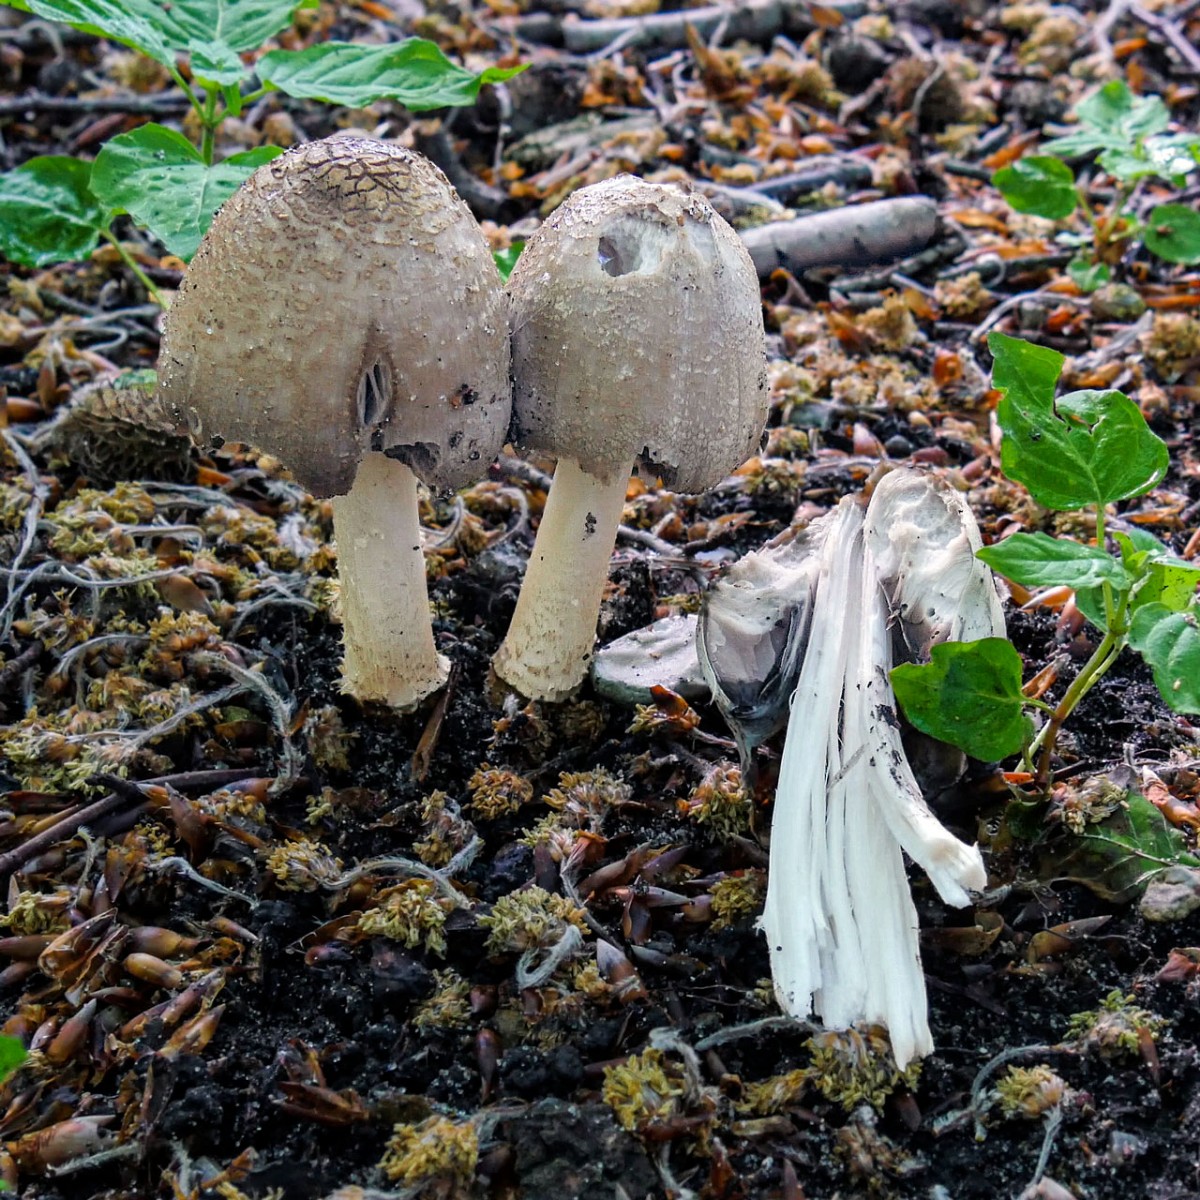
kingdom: Fungi
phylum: Basidiomycota
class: Agaricomycetes
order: Agaricales
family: Psathyrellaceae
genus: Coprinopsis
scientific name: Coprinopsis
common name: blækhat
